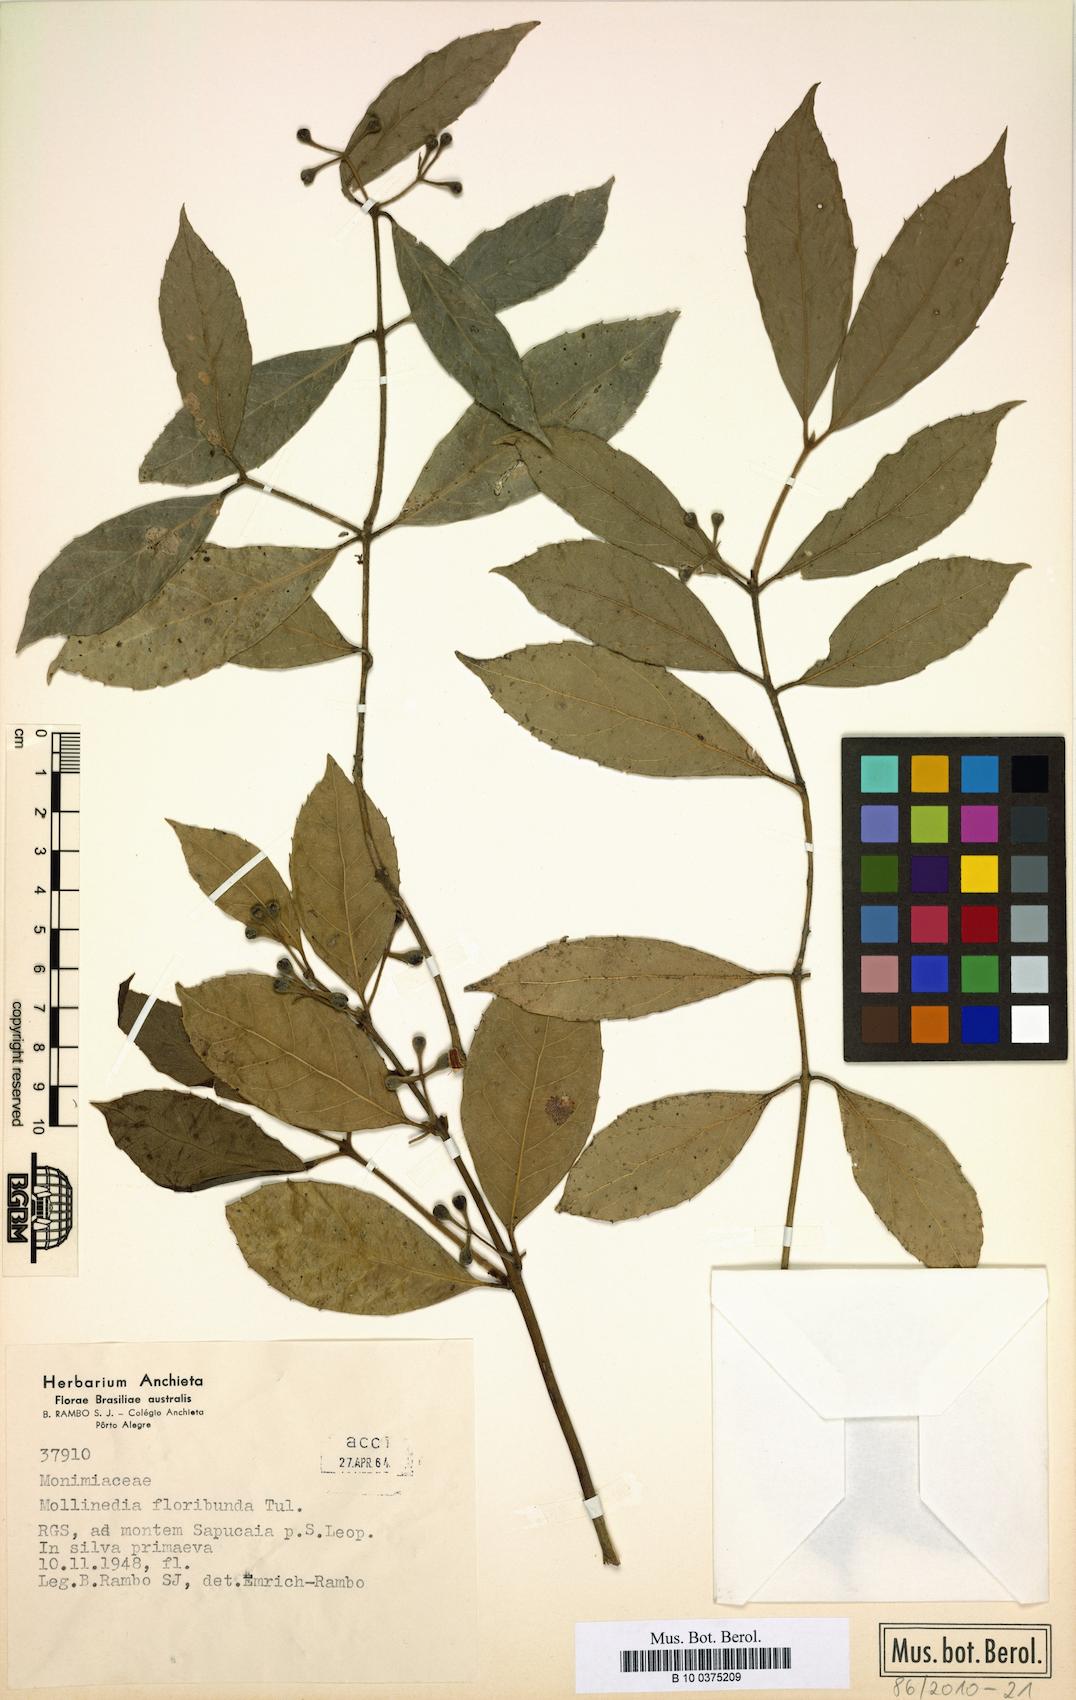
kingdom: Plantae
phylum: Tracheophyta
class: Magnoliopsida
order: Laurales
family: Monimiaceae
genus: Mollinedia
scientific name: Mollinedia umbellata
